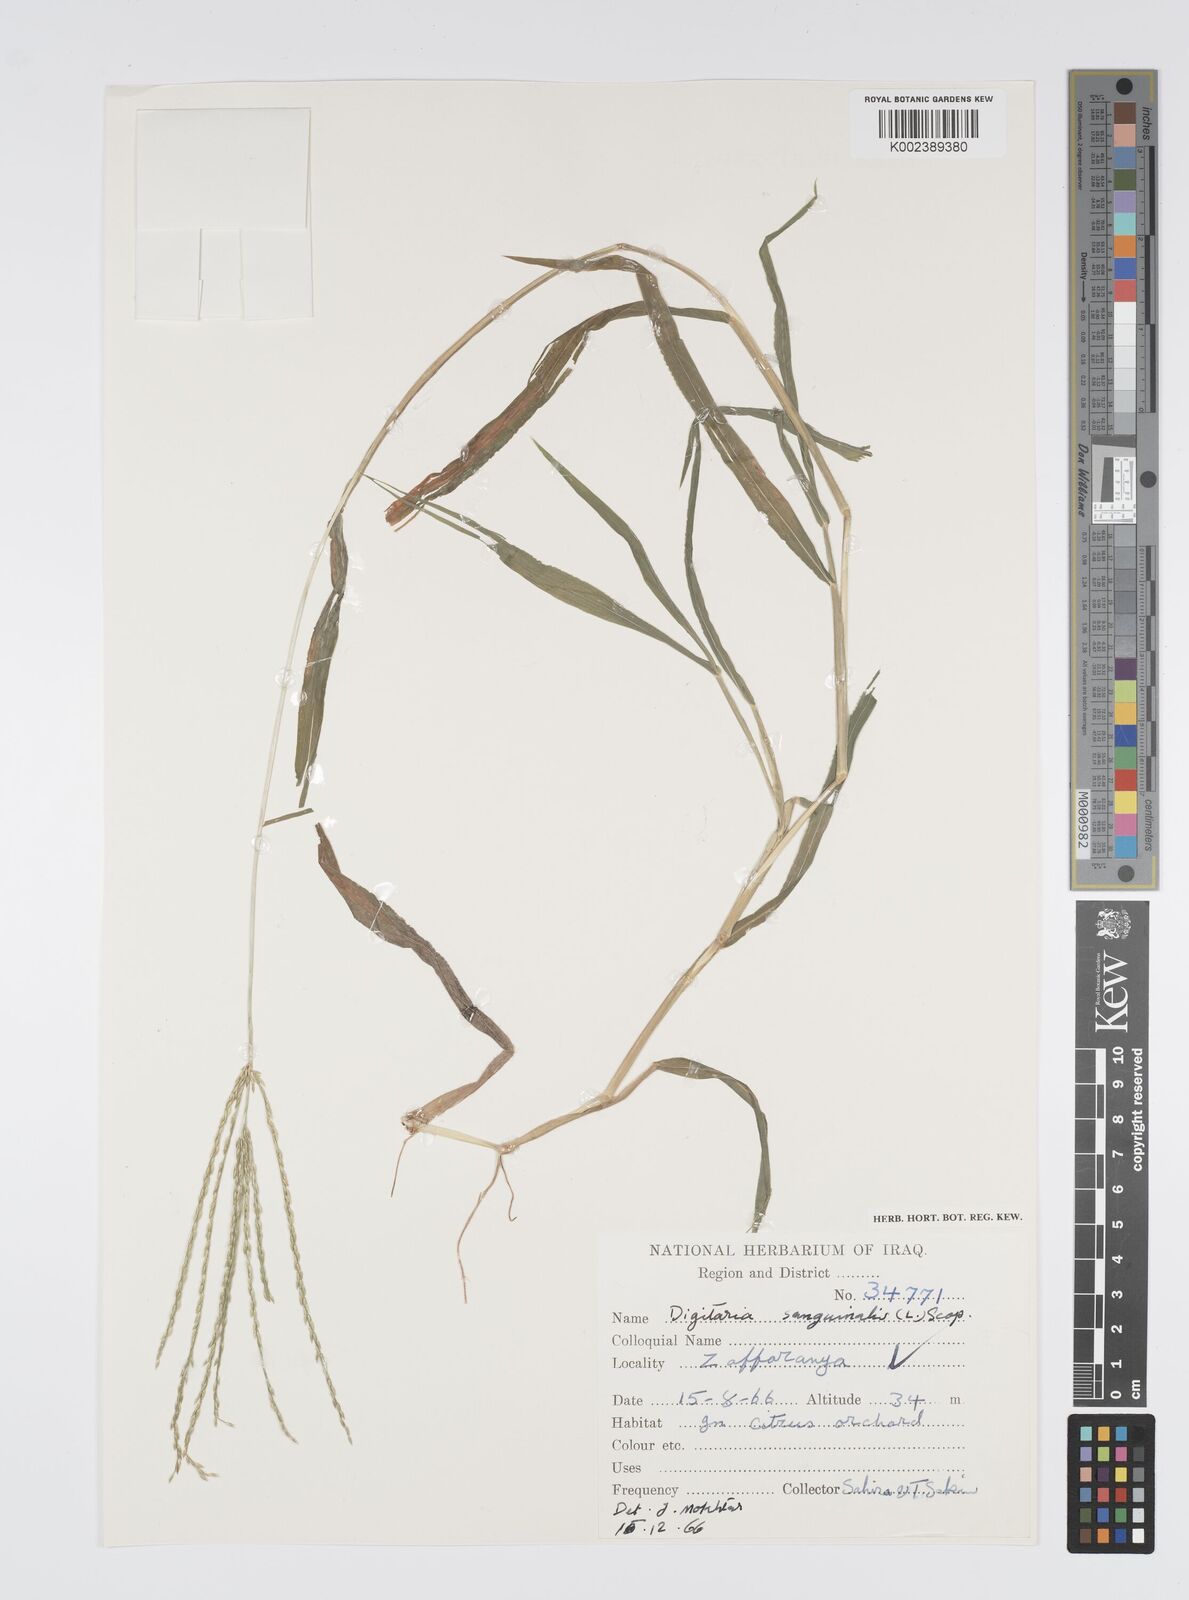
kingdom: Plantae
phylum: Tracheophyta
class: Liliopsida
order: Poales
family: Poaceae
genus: Digitaria
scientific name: Digitaria sanguinalis
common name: Hairy crabgrass
